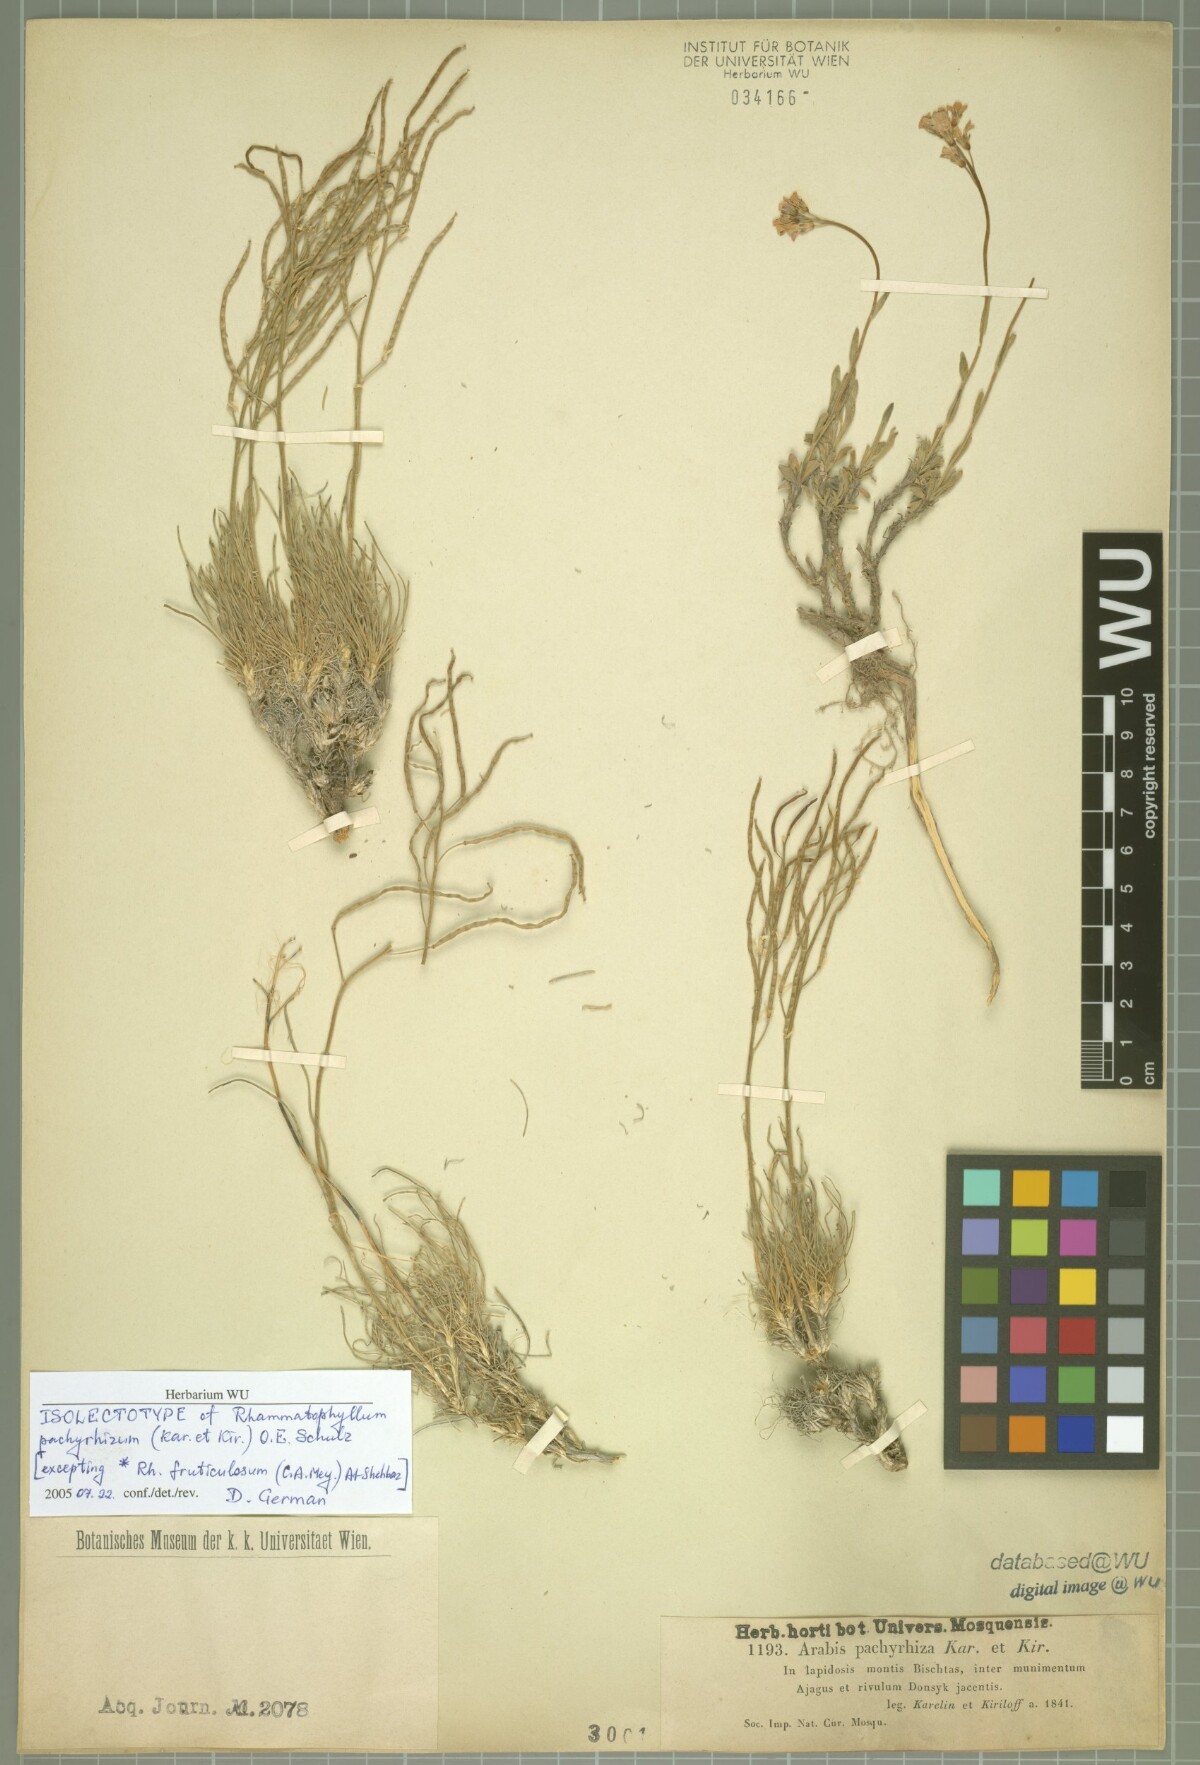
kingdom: Plantae
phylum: Tracheophyta
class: Magnoliopsida
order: Brassicales
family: Brassicaceae
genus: Rhammatophyllum
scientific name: Rhammatophyllum pachyrhizum
